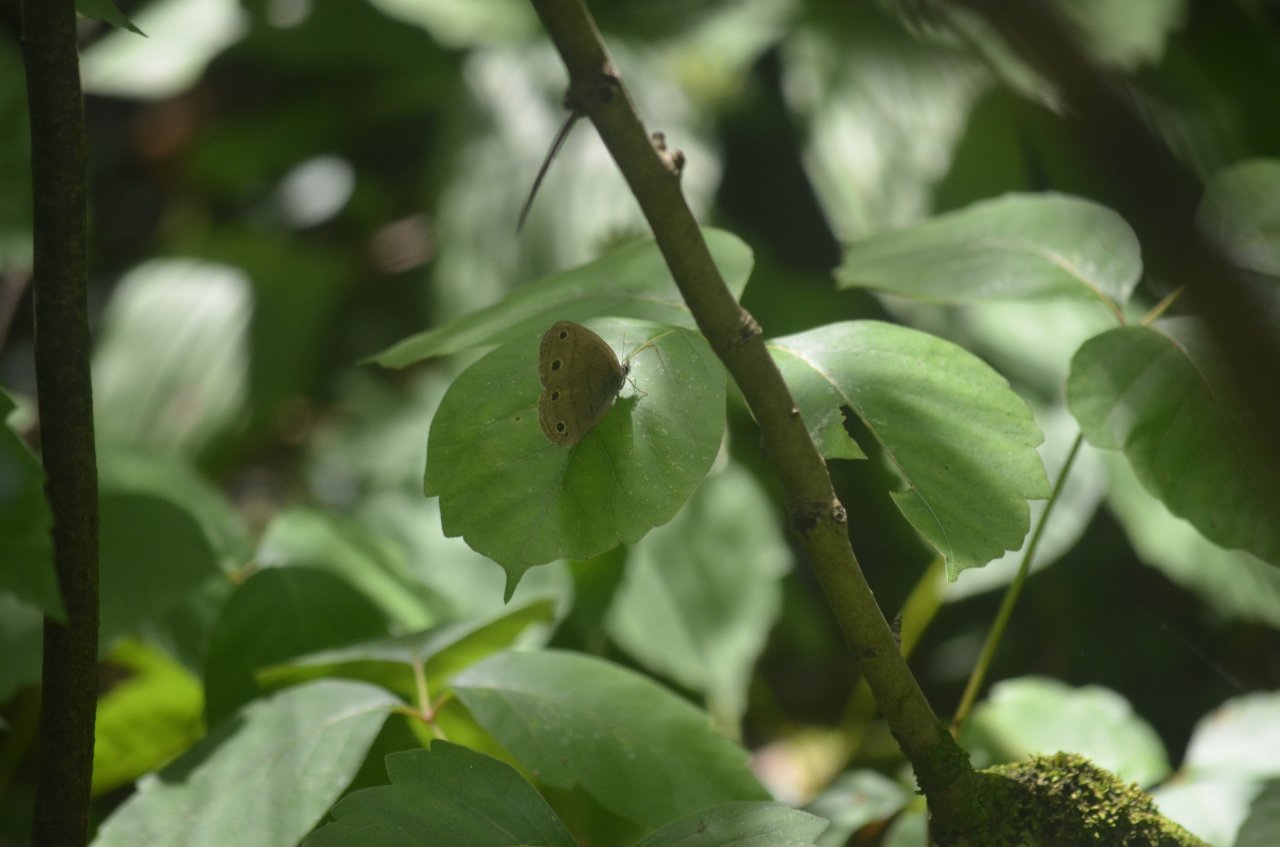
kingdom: Animalia
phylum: Arthropoda
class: Insecta
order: Lepidoptera
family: Nymphalidae
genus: Euptychia
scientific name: Euptychia cymela
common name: Little Wood Satyr
